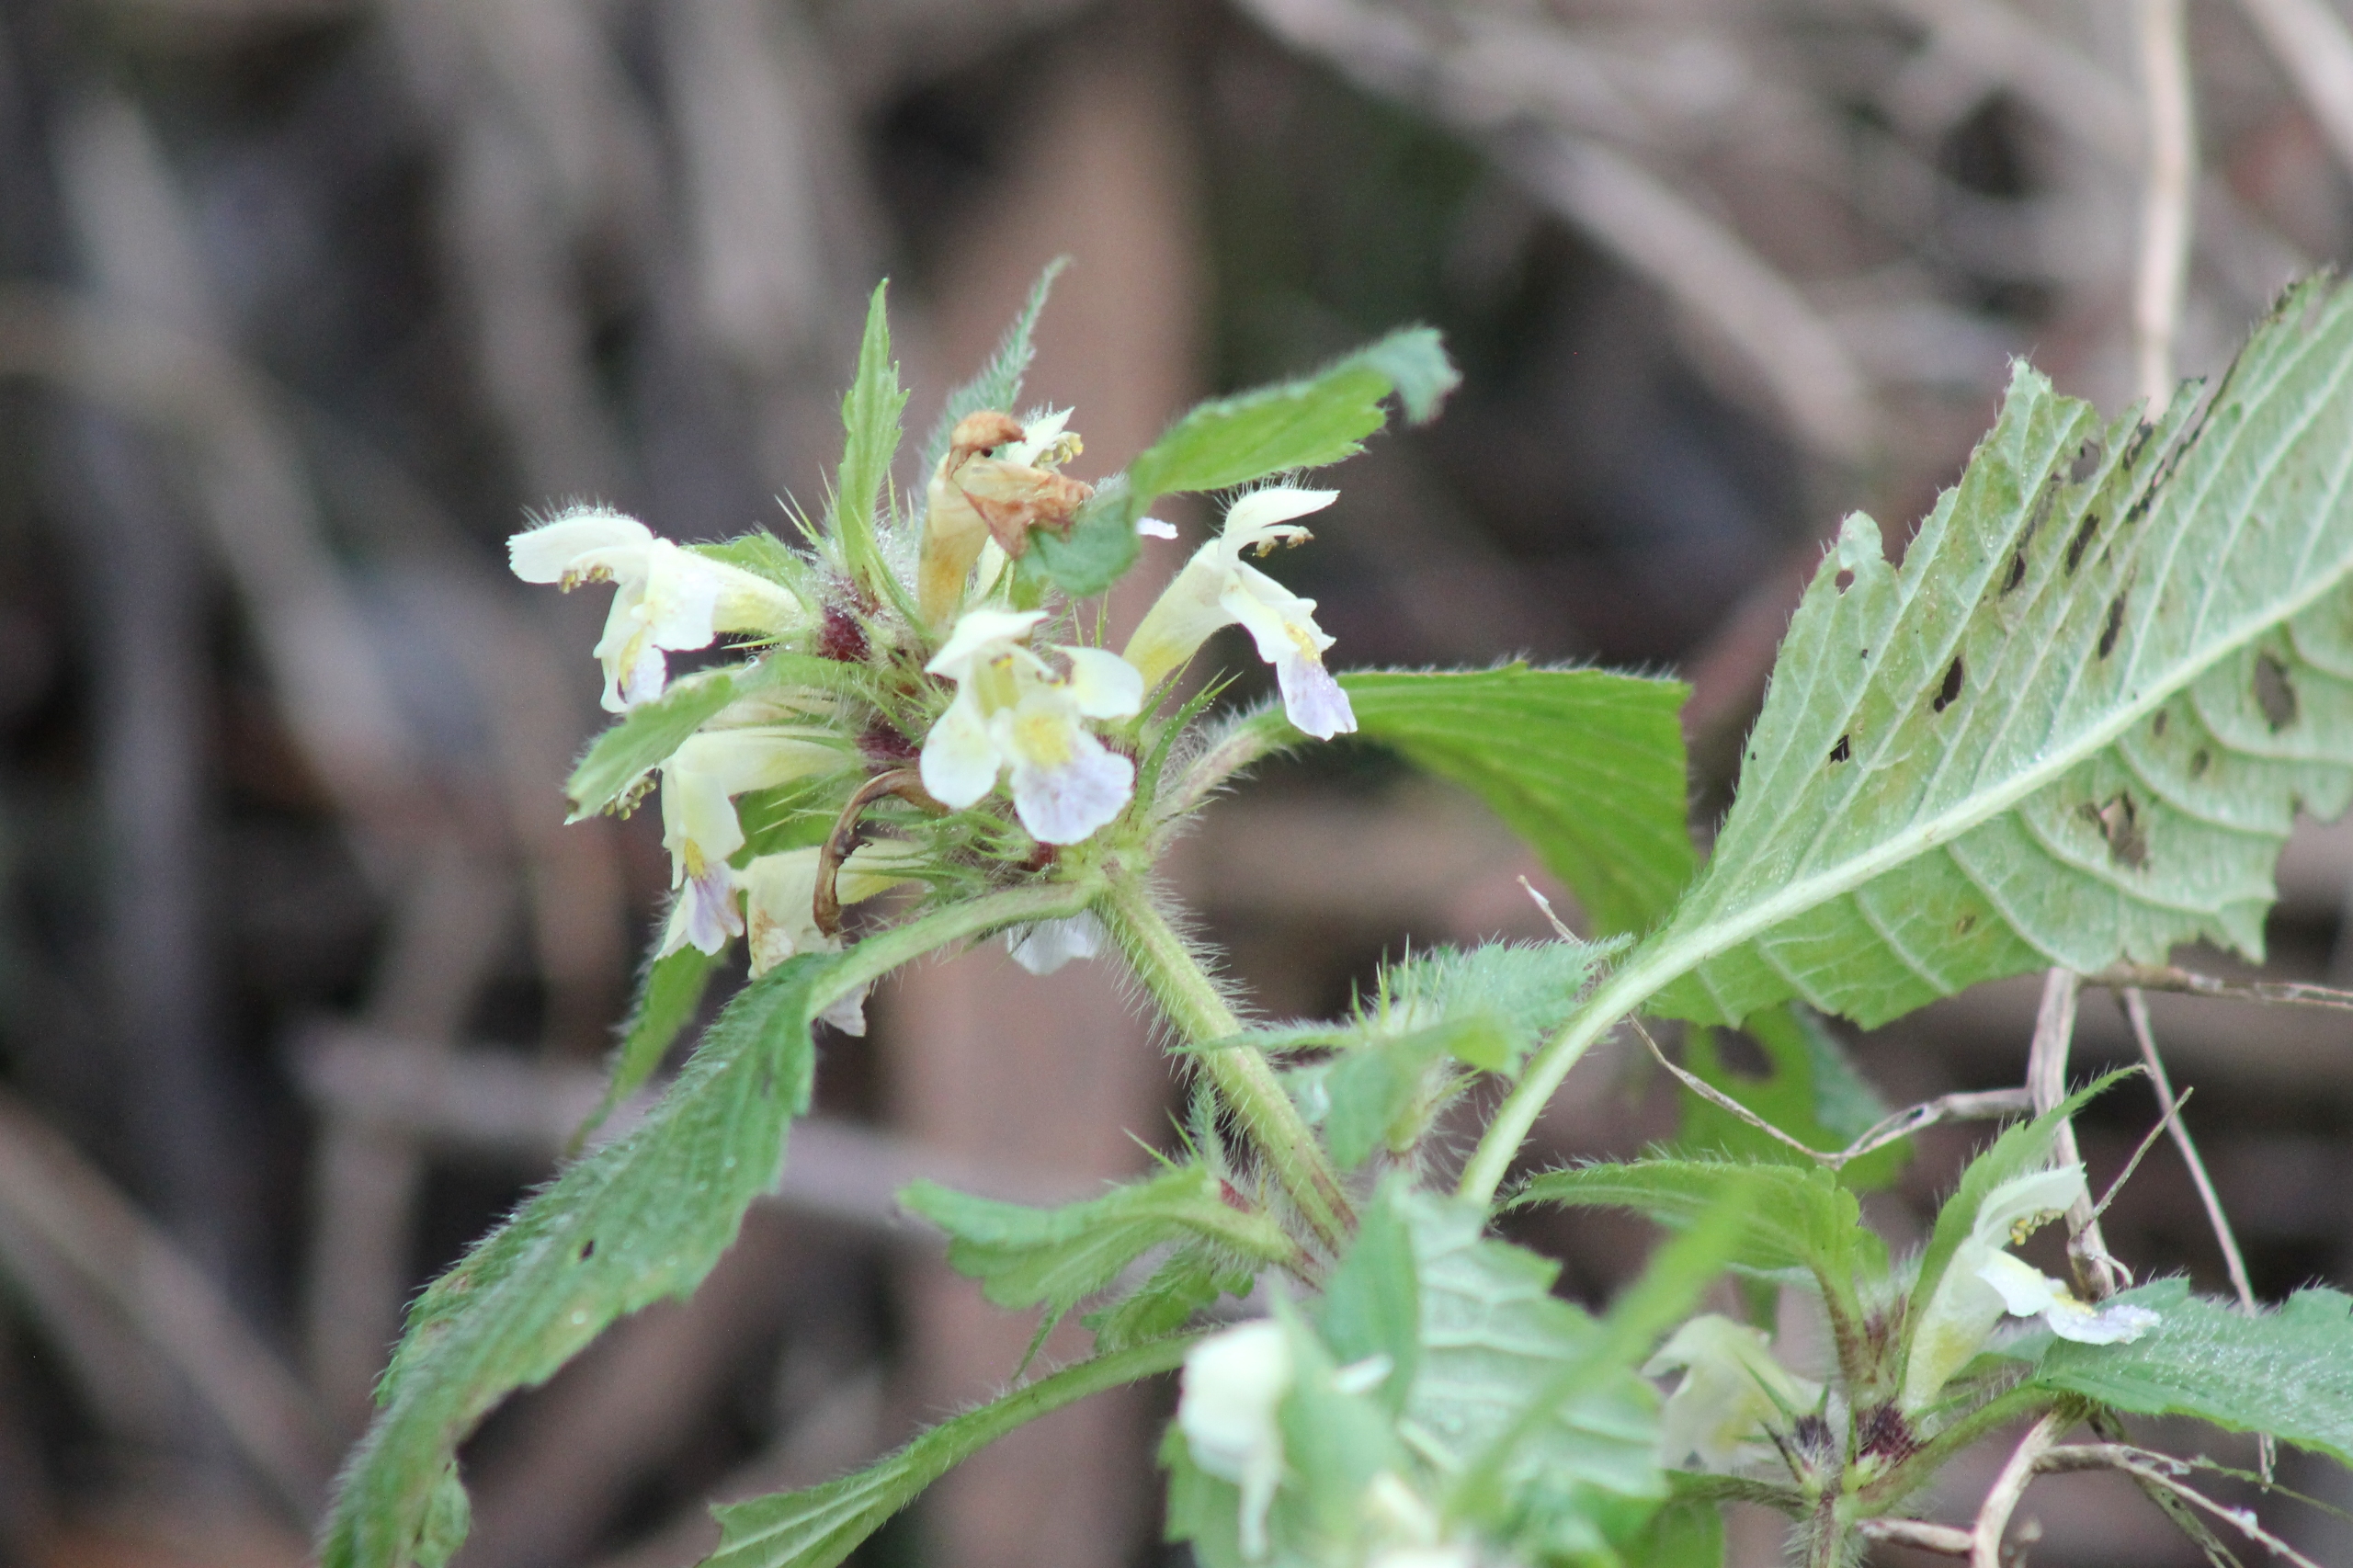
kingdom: Plantae
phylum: Tracheophyta
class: Magnoliopsida
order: Lamiales
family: Lamiaceae
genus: Galeopsis
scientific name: Galeopsis
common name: Hanekroslægten
